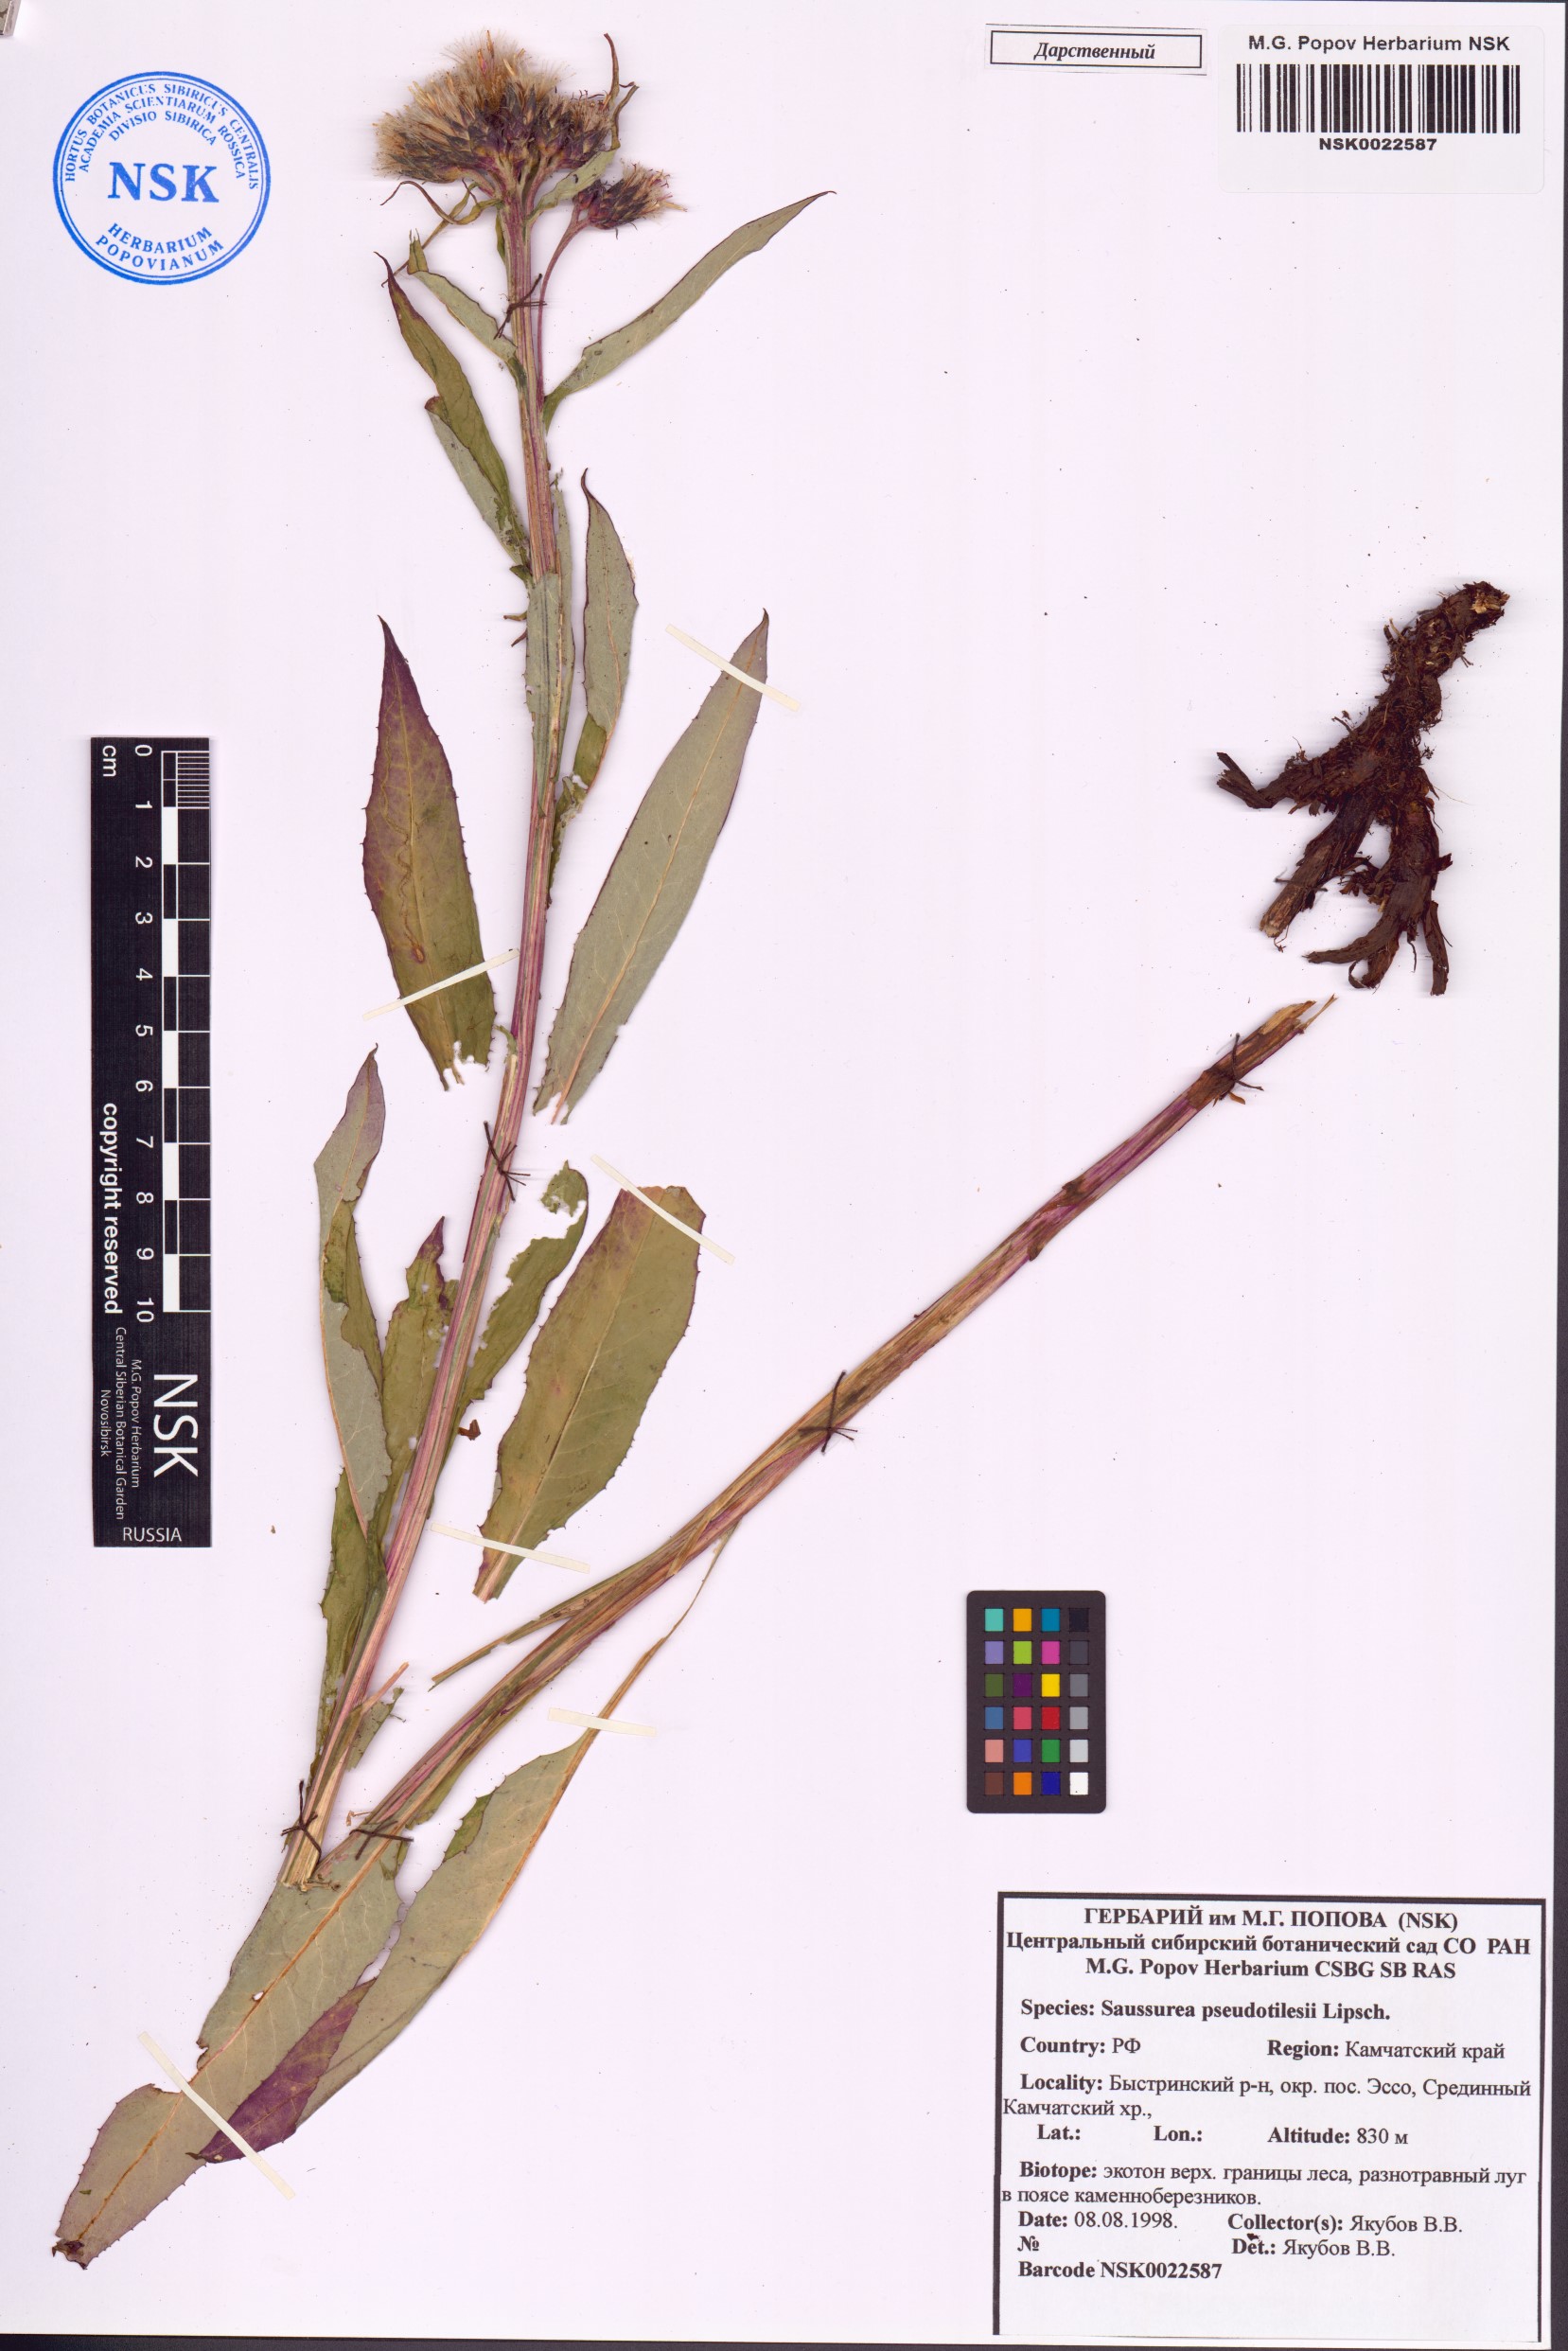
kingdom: Plantae
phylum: Tracheophyta
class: Magnoliopsida
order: Asterales
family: Asteraceae
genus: Saussurea
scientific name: Saussurea pseudotilesii
